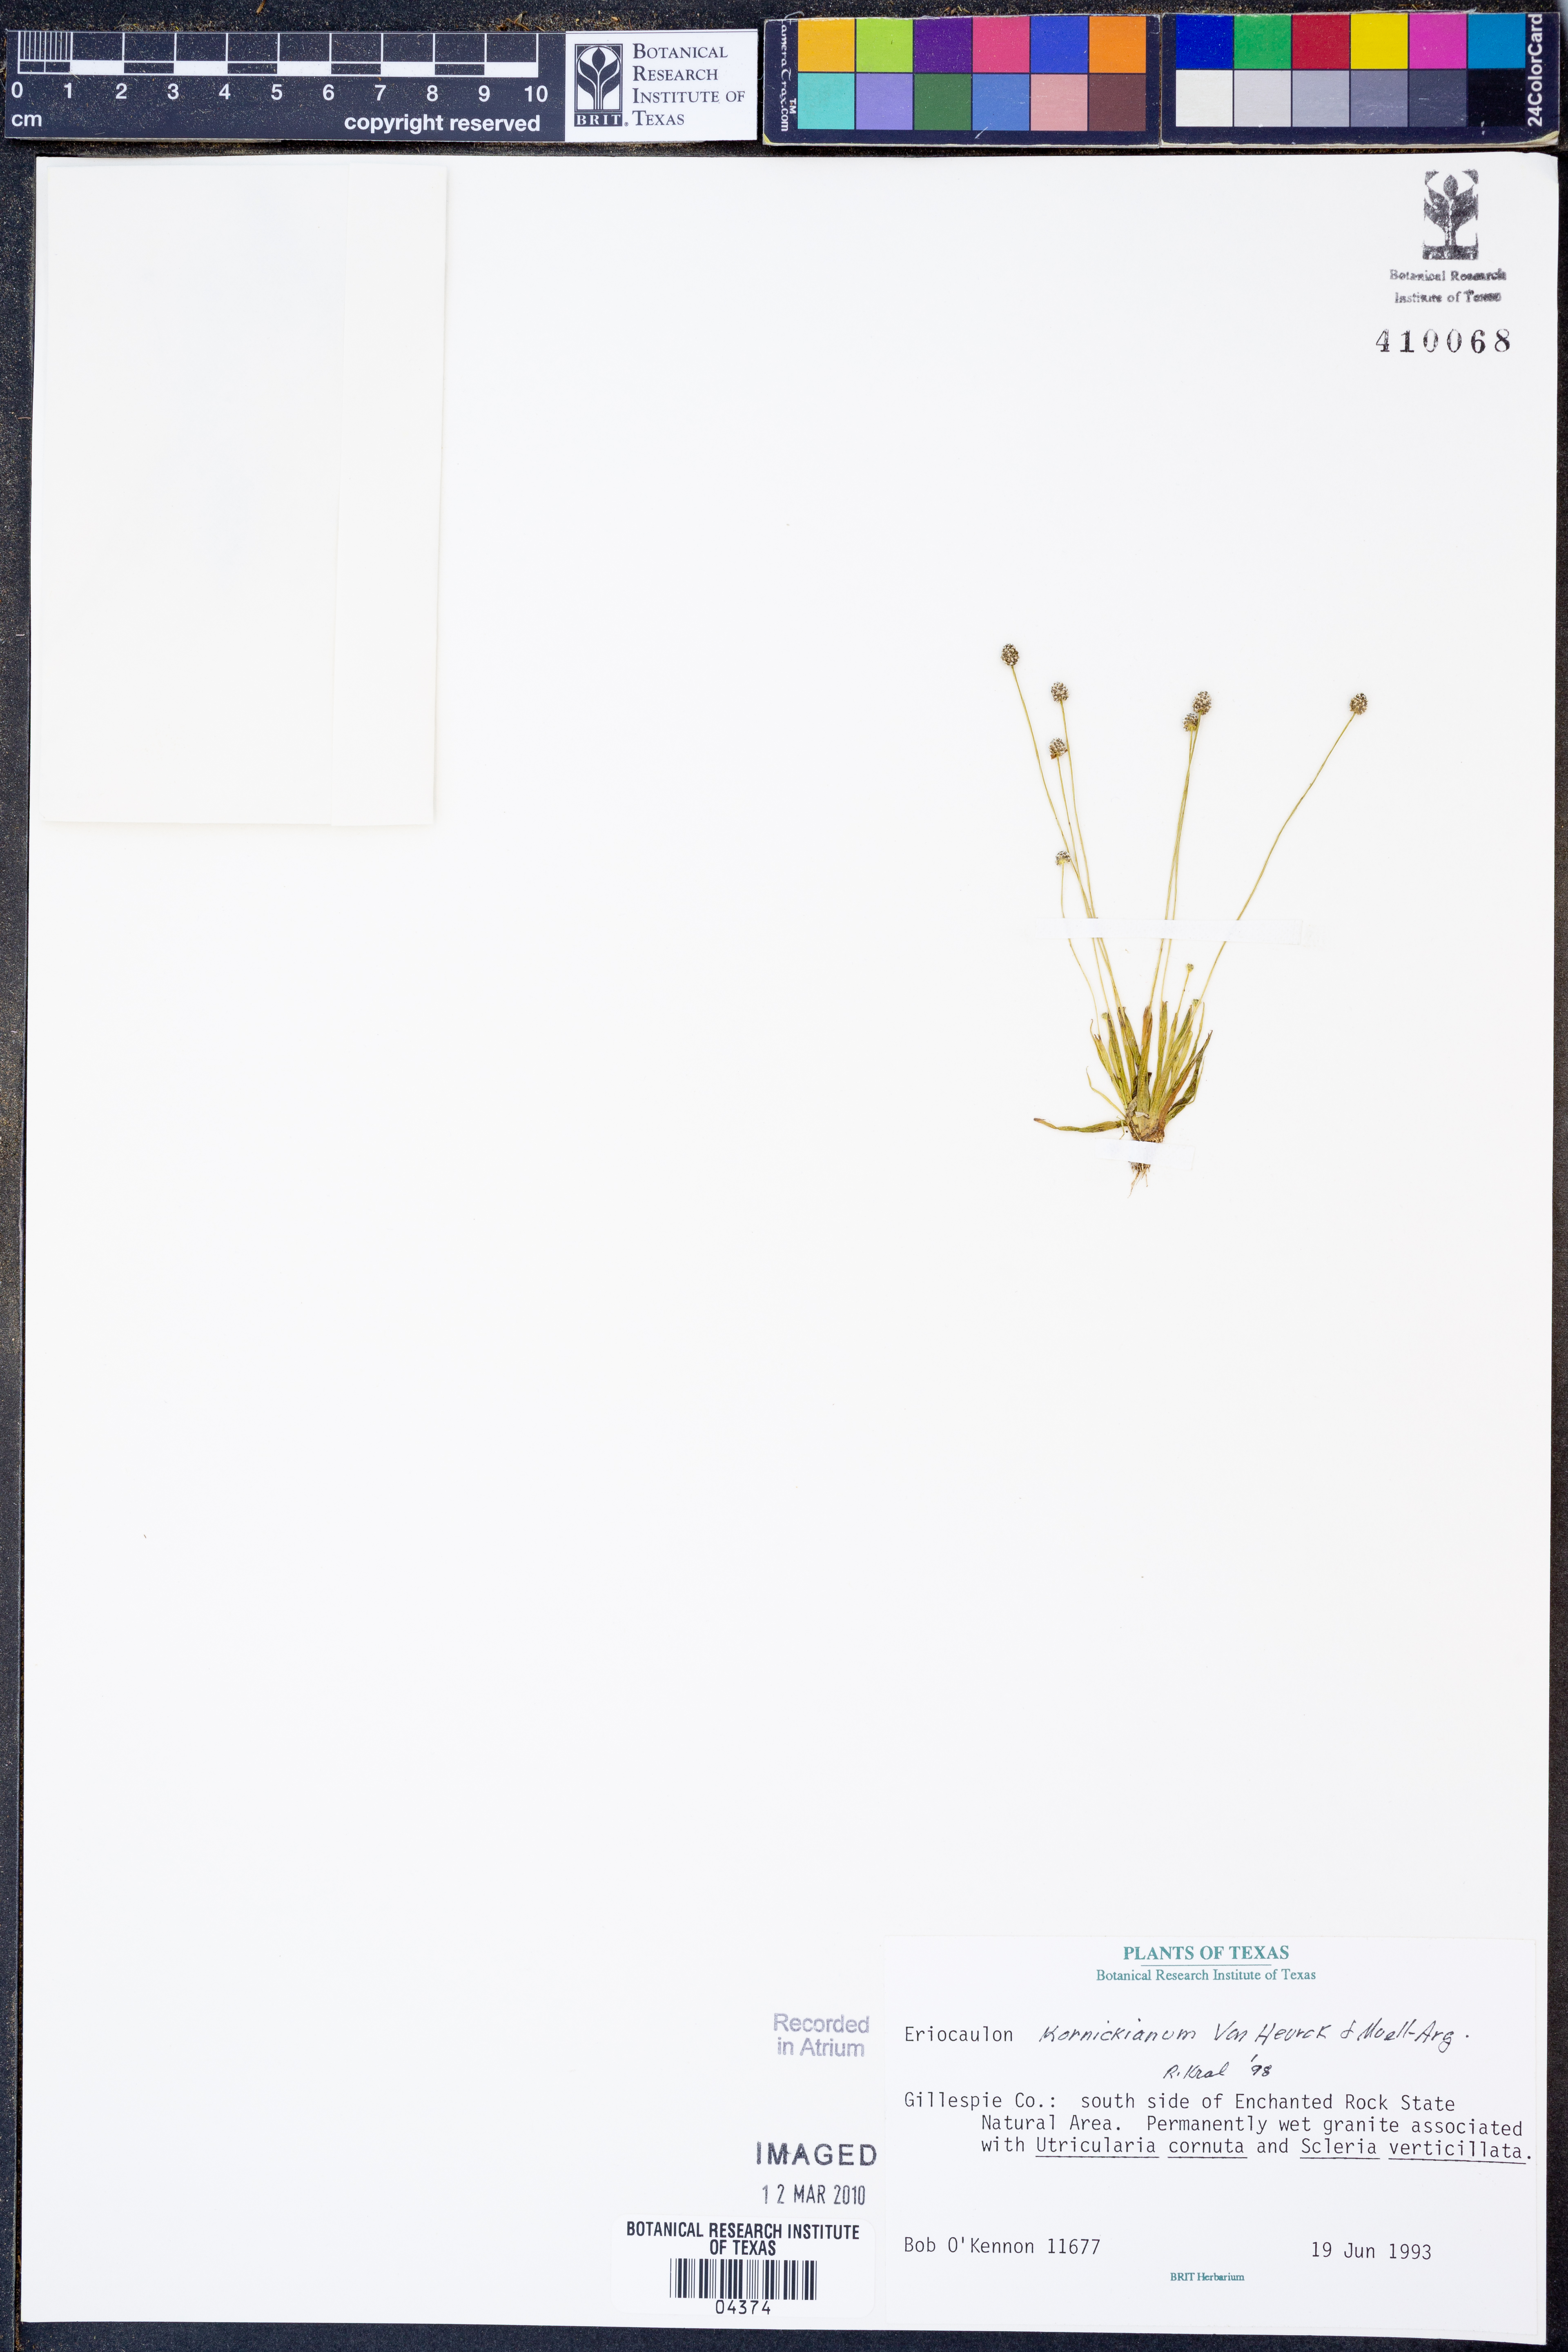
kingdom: Plantae
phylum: Tracheophyta
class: Liliopsida
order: Poales
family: Eriocaulaceae
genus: Eriocaulon
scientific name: Eriocaulon koernickianum
